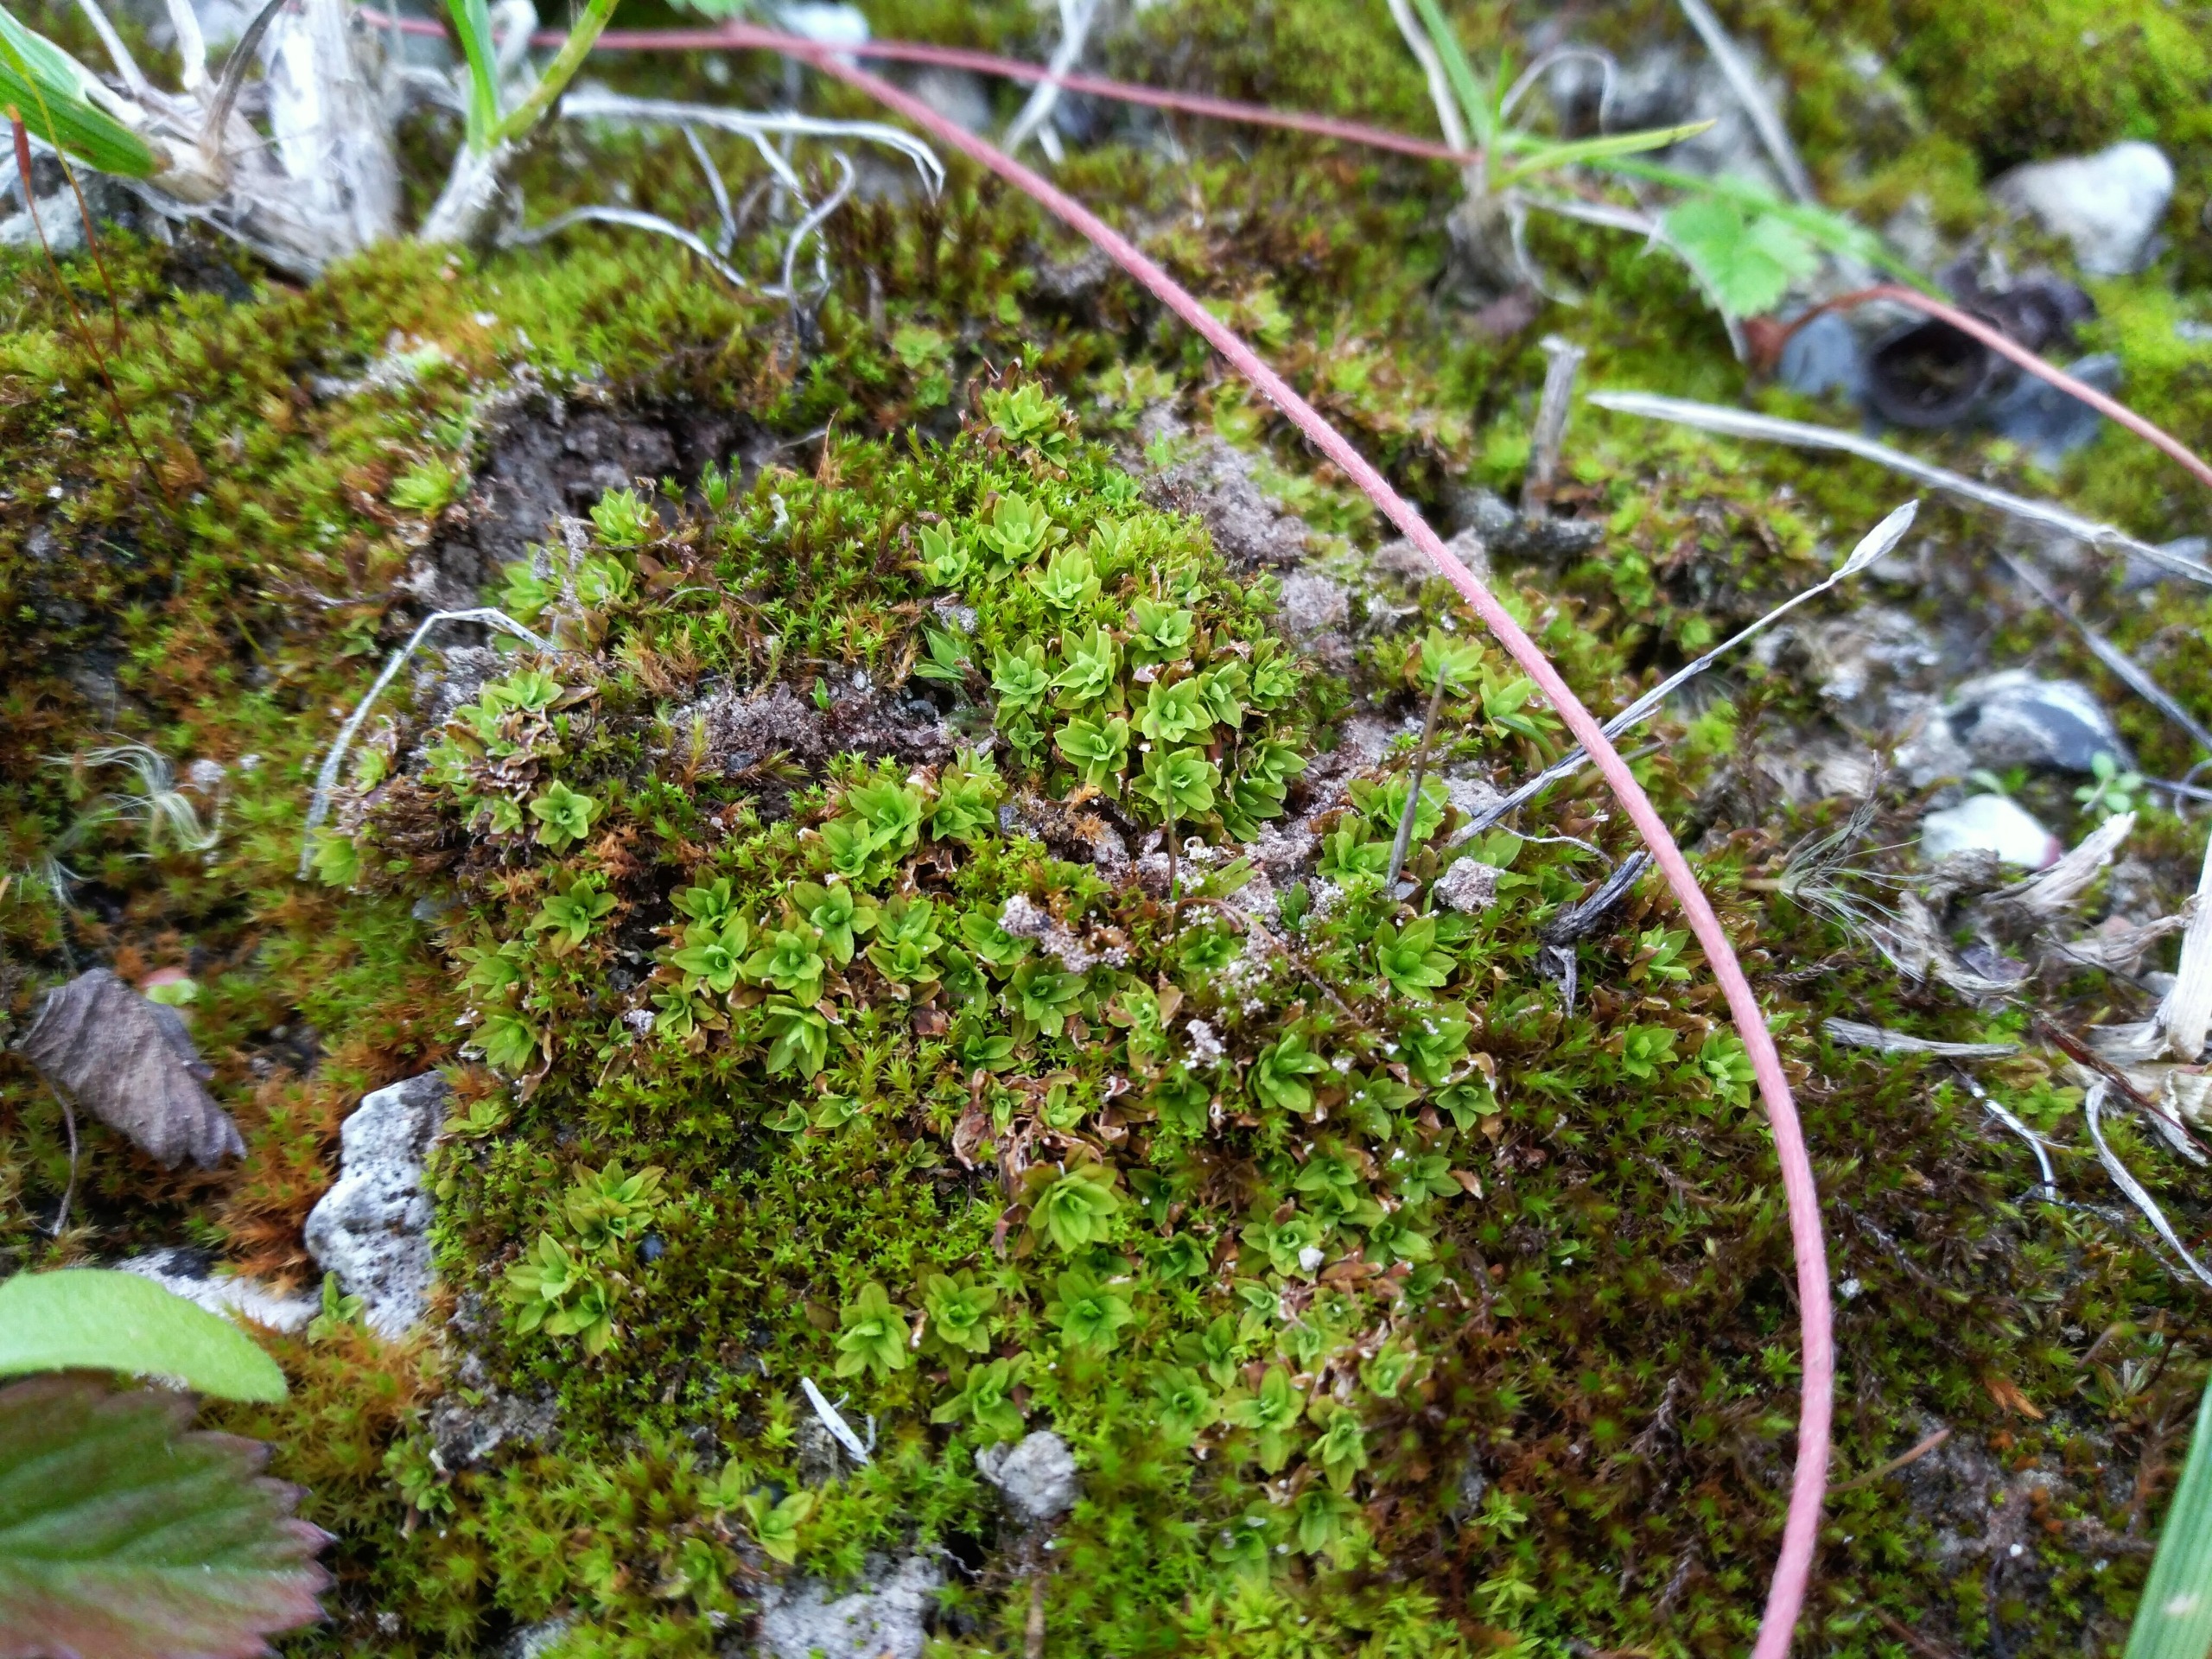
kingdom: Plantae
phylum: Bryophyta
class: Bryopsida
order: Encalyptales
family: Encalyptaceae
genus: Encalypta
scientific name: Encalypta streptocarpa
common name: Stor klokkehætte
